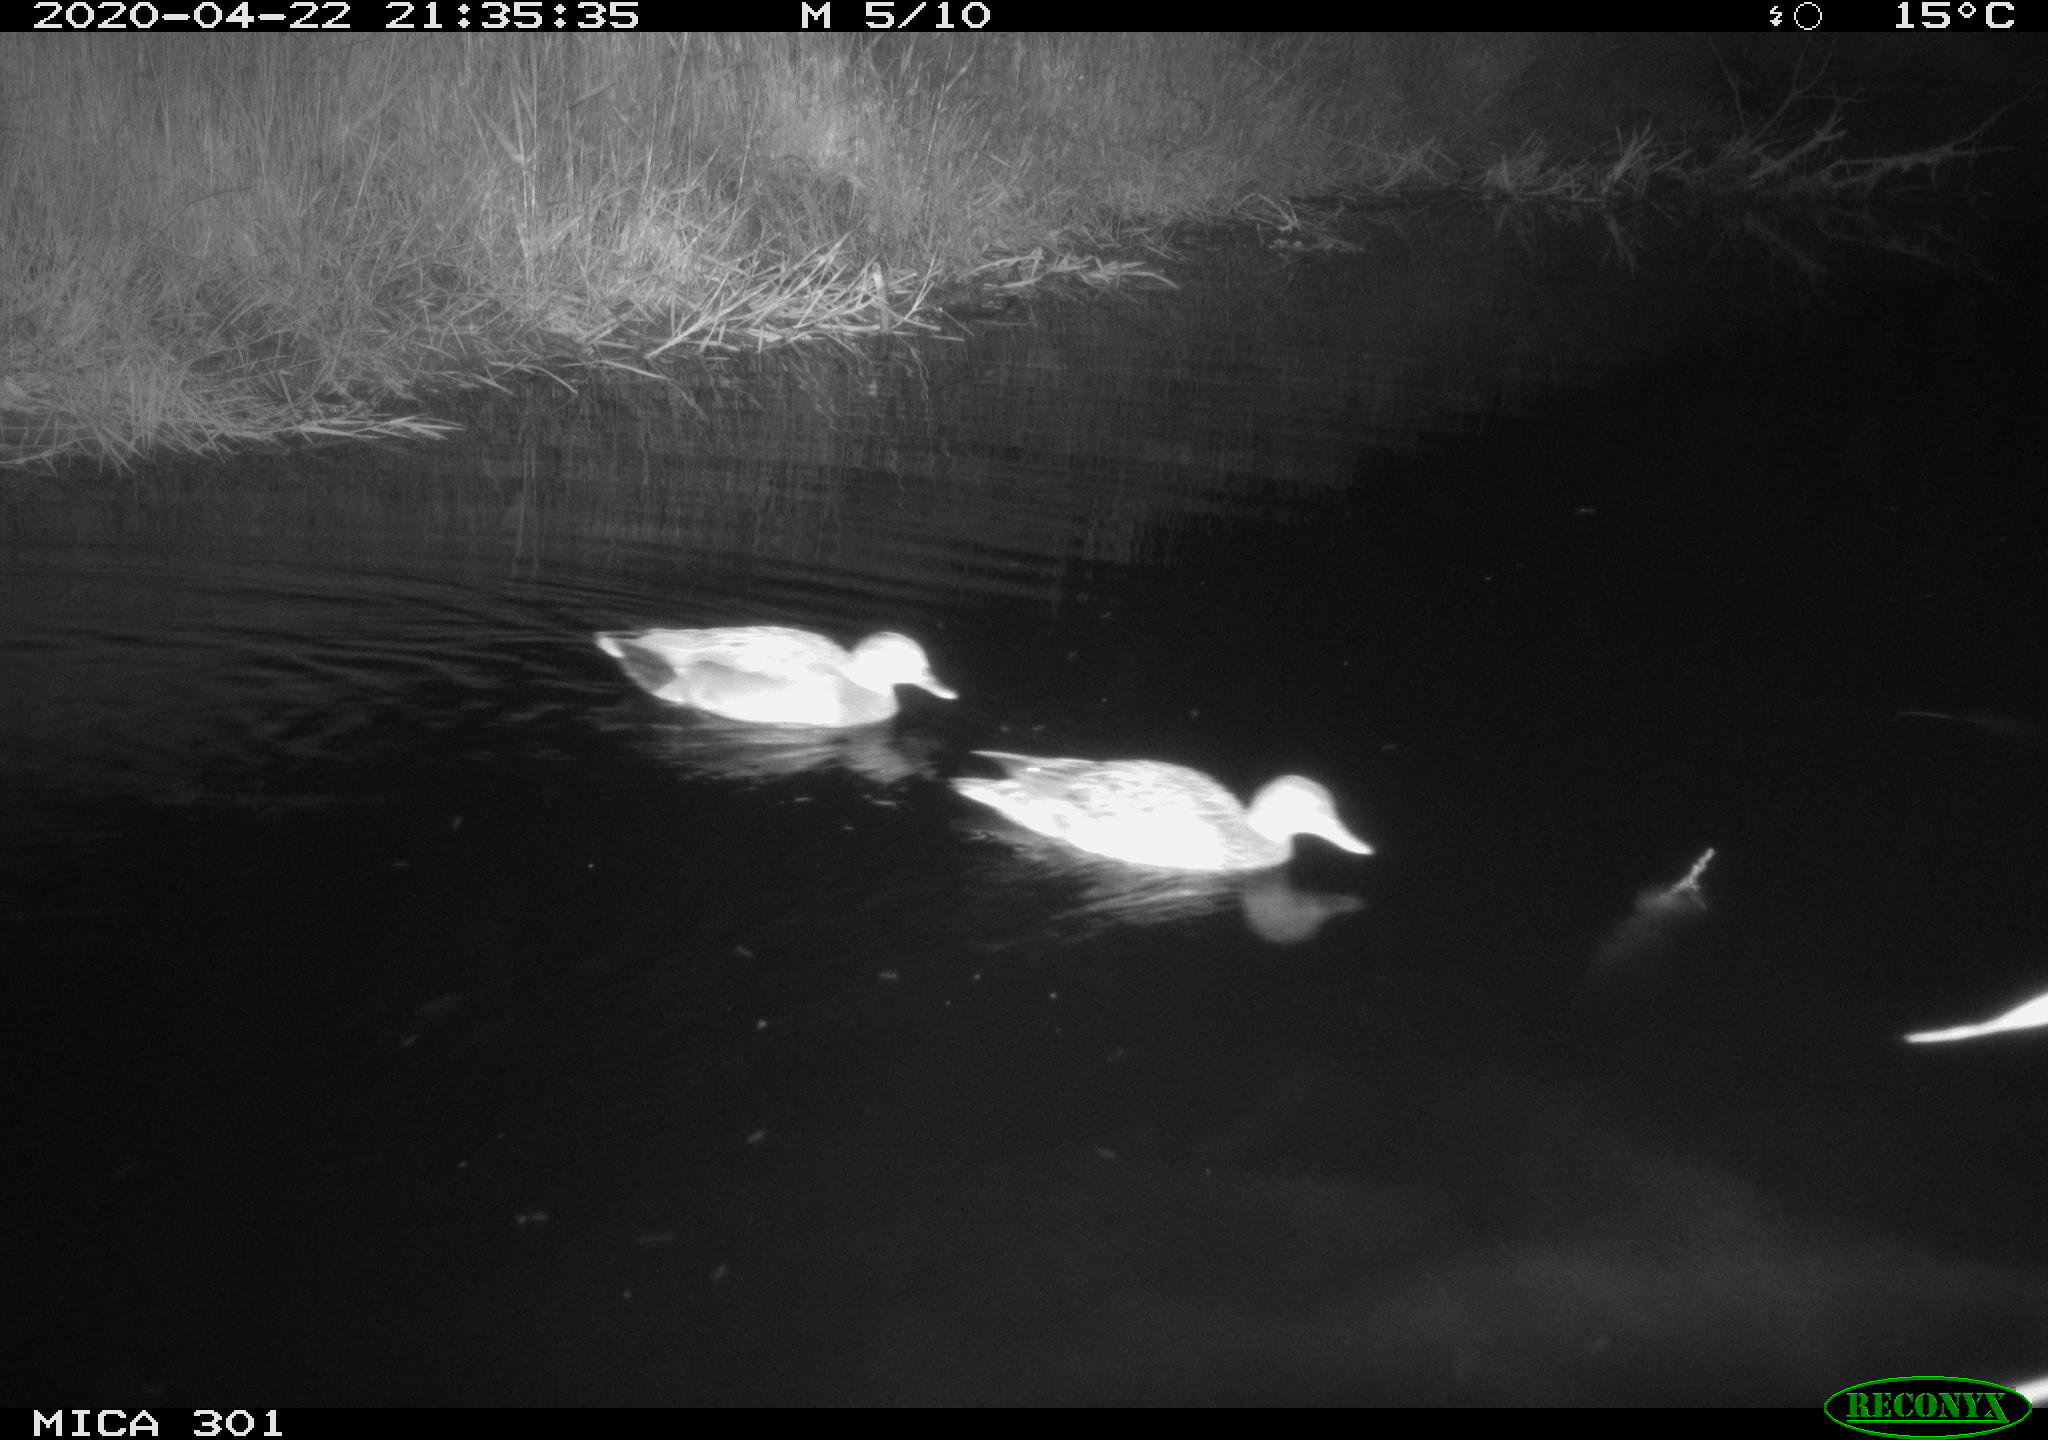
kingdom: Animalia
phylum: Chordata
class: Aves
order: Anseriformes
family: Anatidae
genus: Mareca
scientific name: Mareca strepera
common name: Gadwall
